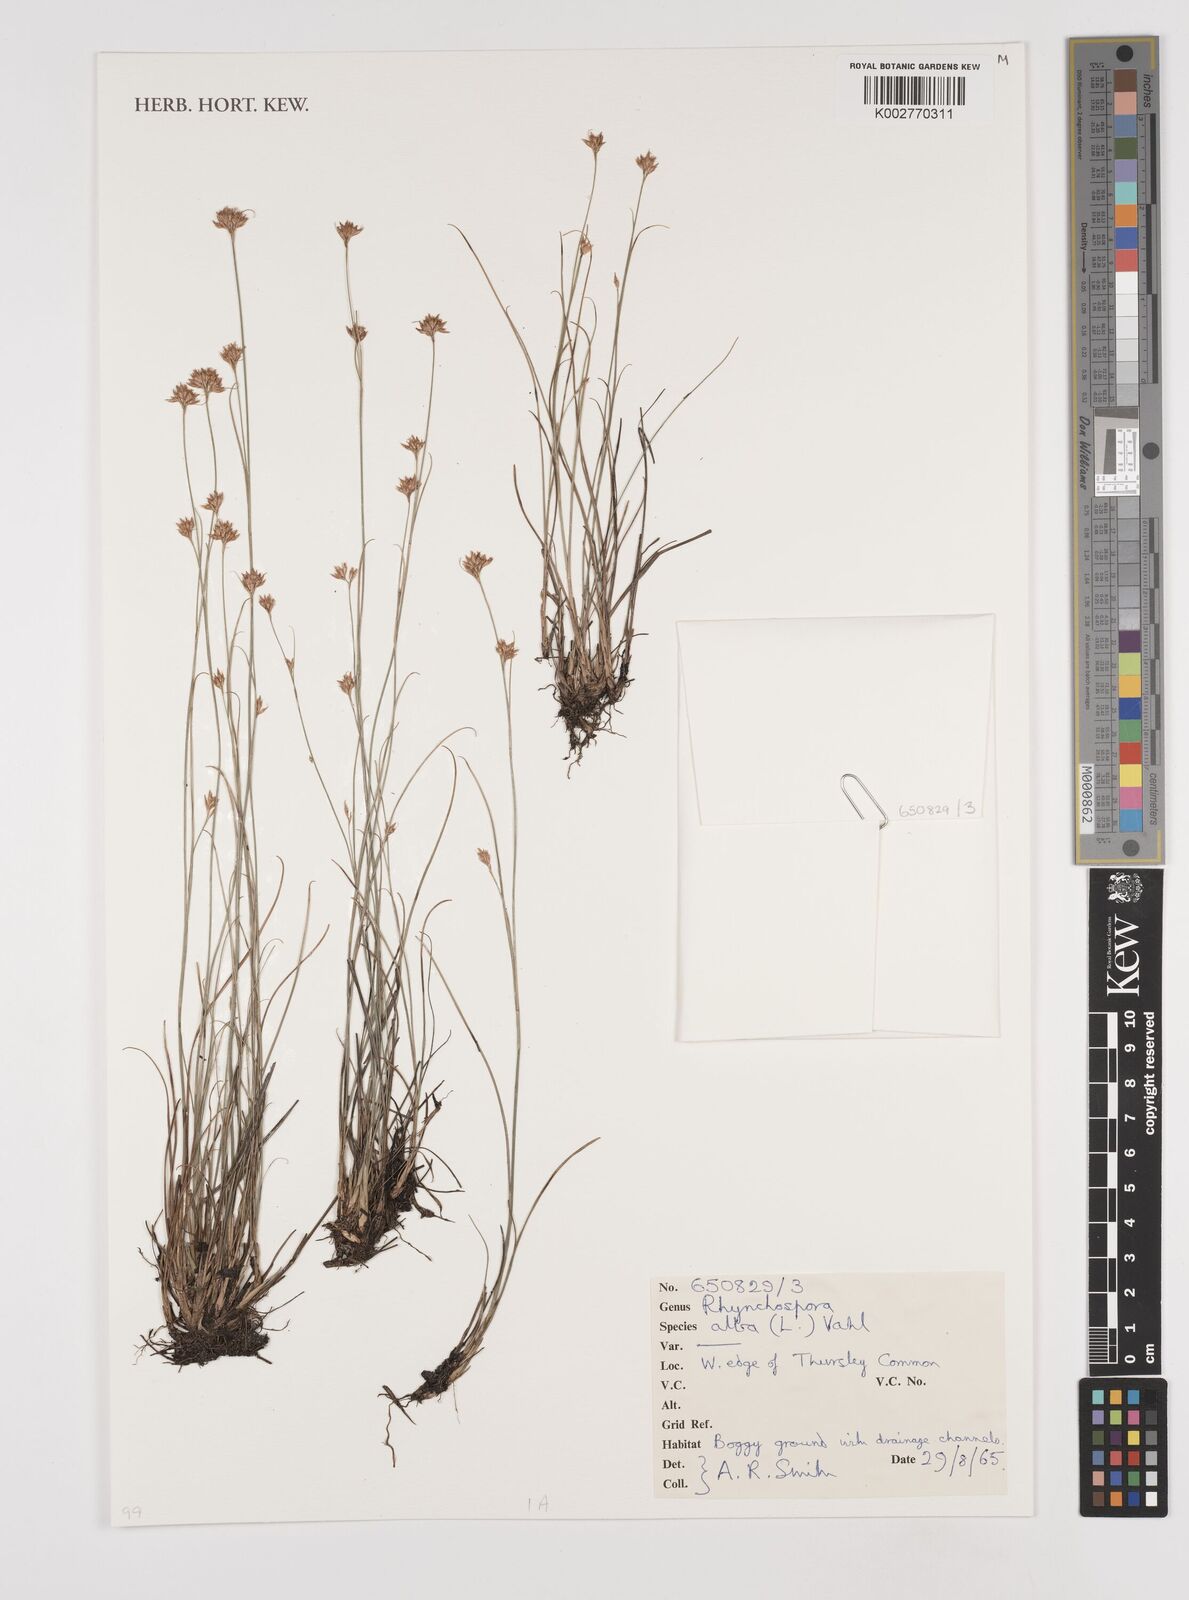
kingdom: Plantae
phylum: Tracheophyta
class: Liliopsida
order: Poales
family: Cyperaceae
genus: Rhynchospora
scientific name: Rhynchospora
